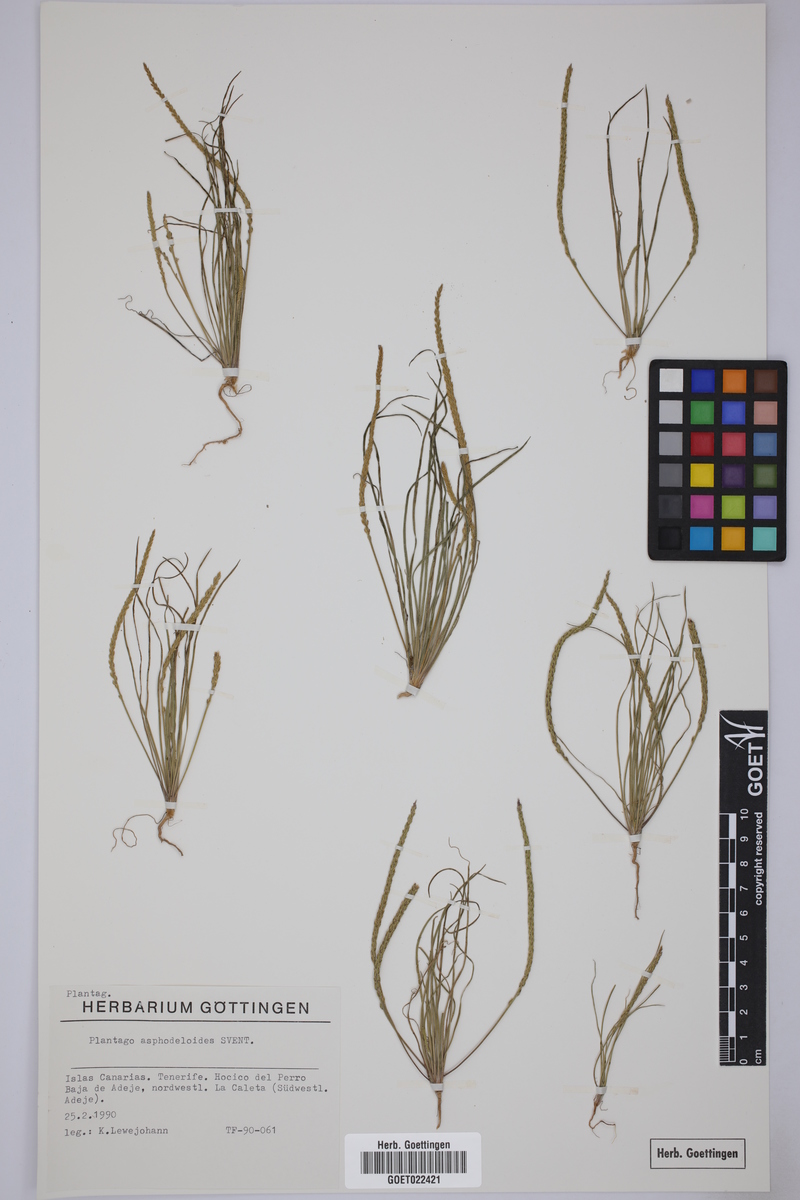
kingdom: Plantae
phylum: Tracheophyta
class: Magnoliopsida
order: Lamiales
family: Plantaginaceae
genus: Plantago
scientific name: Plantago asphodeloides
